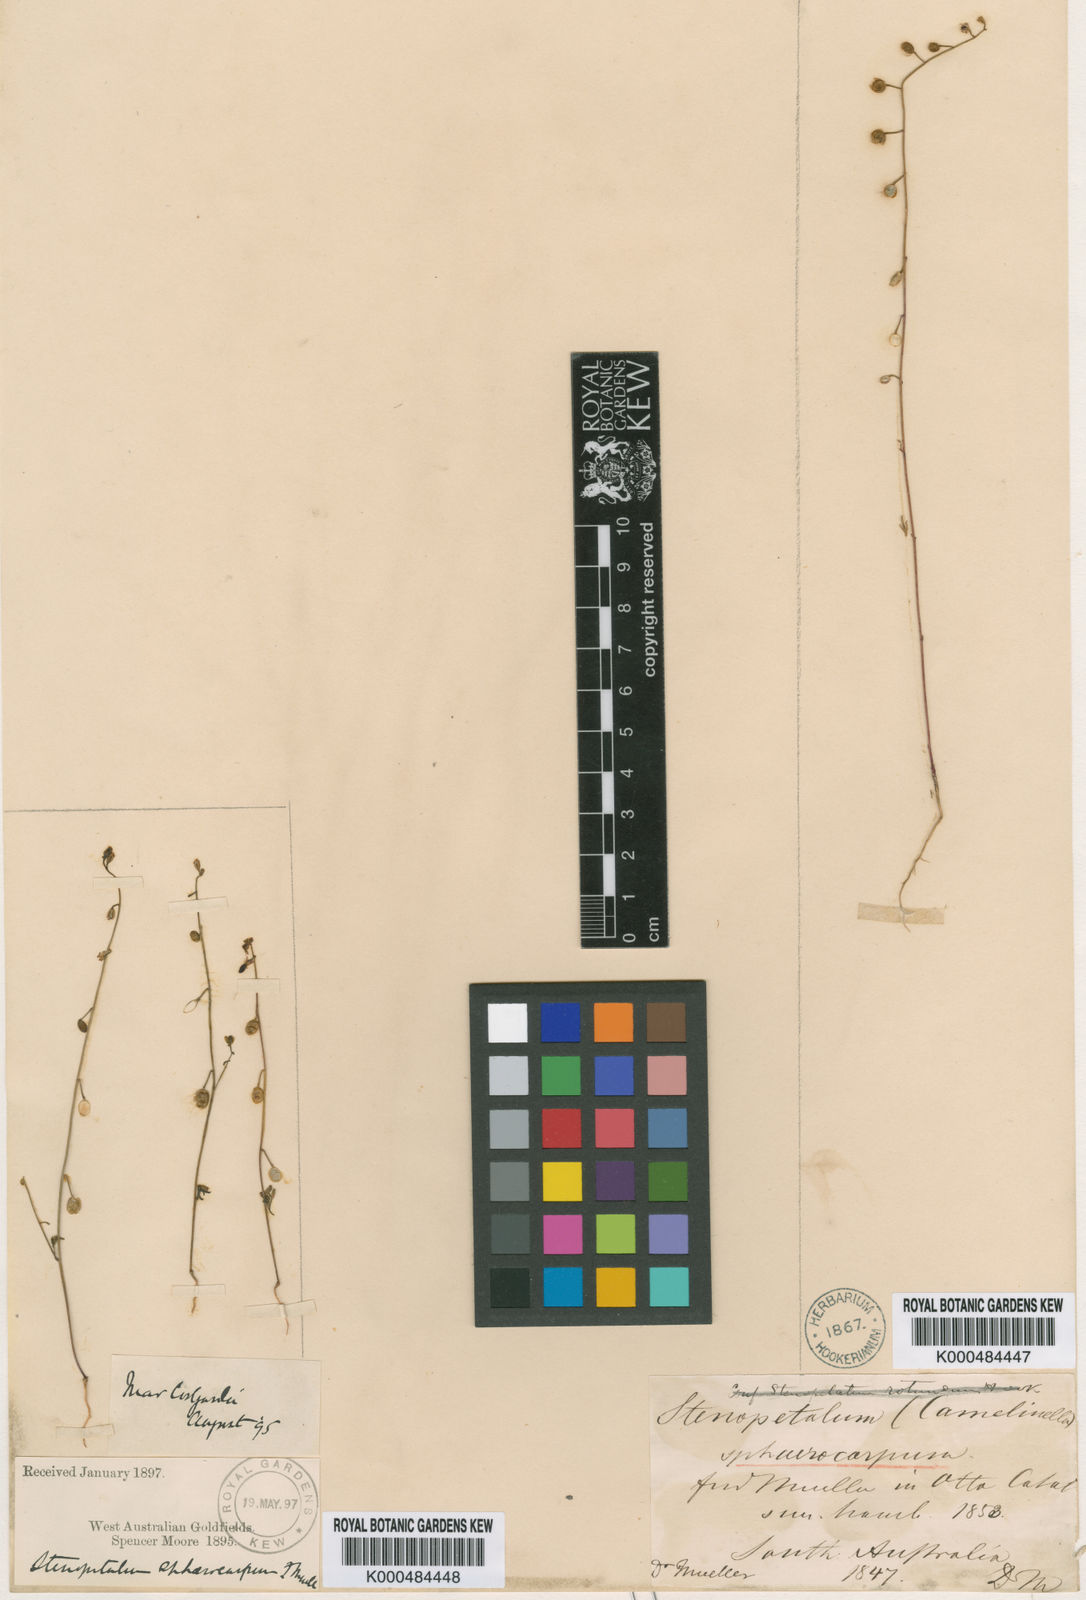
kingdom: Plantae
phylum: Tracheophyta
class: Magnoliopsida
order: Brassicales
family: Brassicaceae
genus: Stenopetalum
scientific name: Stenopetalum
